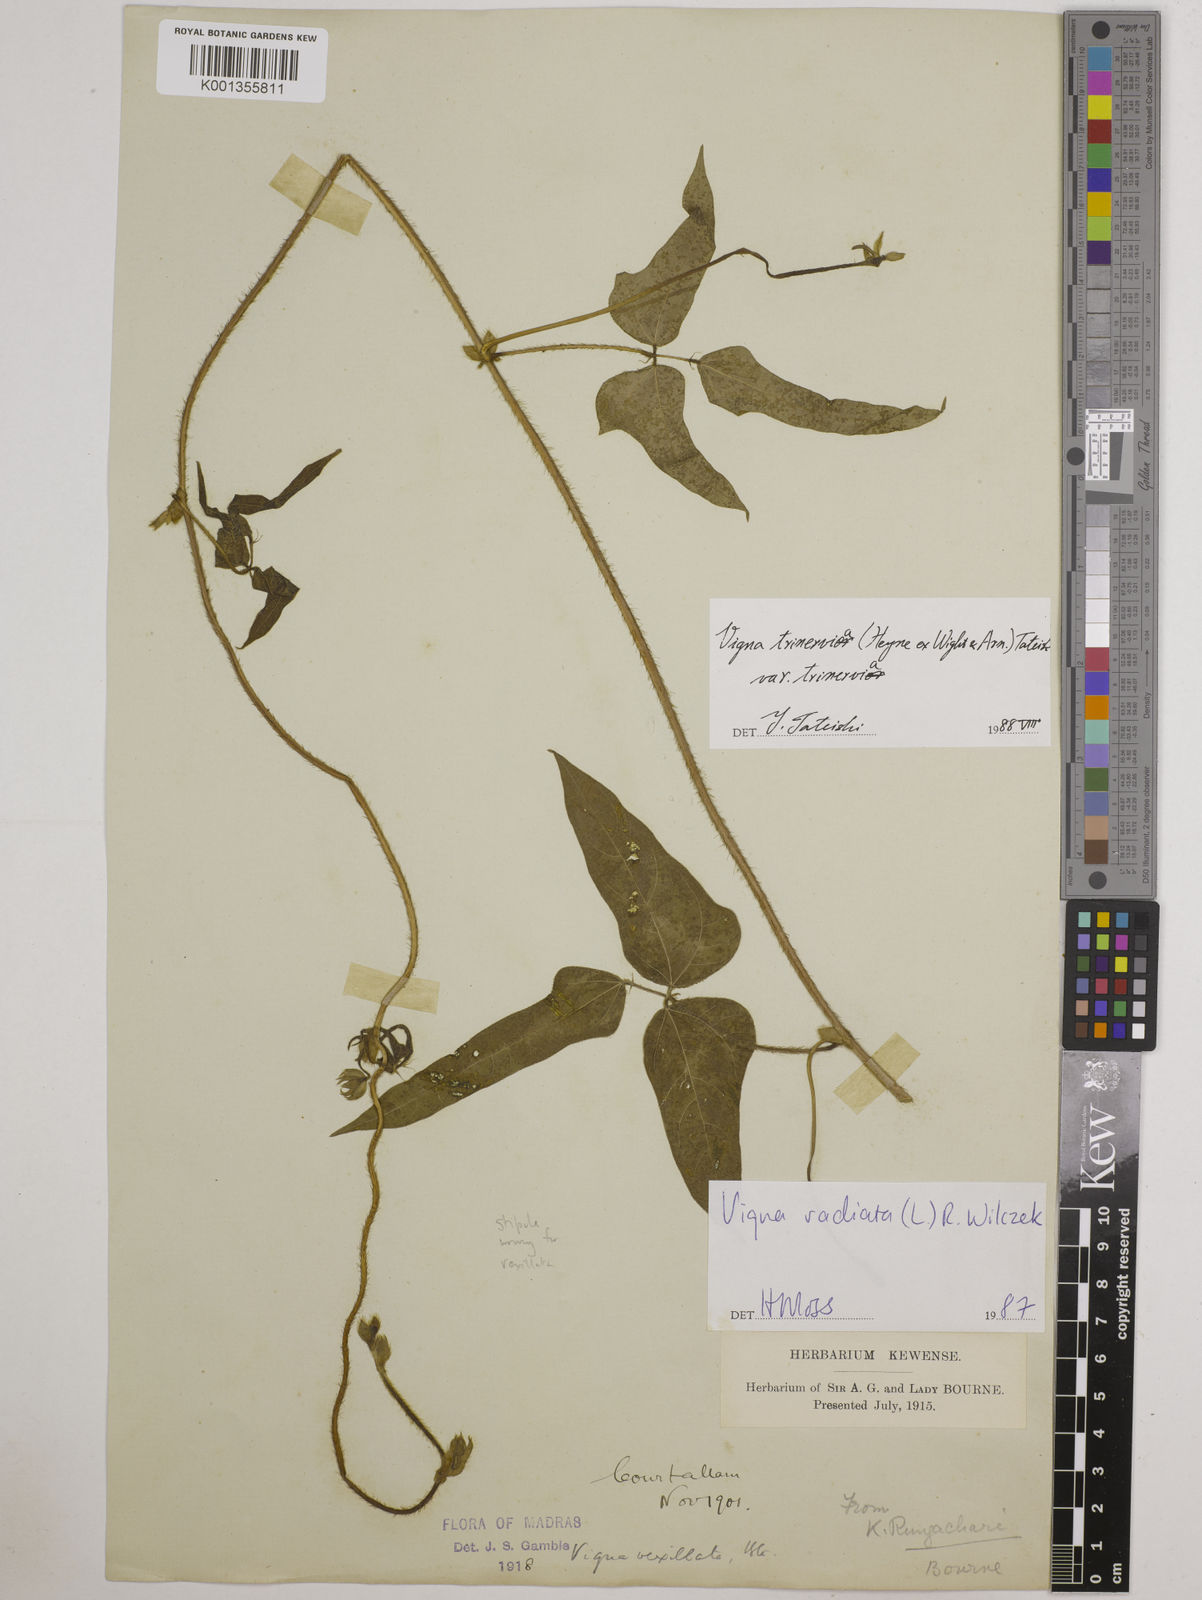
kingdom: Plantae
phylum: Tracheophyta
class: Magnoliopsida
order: Fabales
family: Fabaceae
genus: Vigna
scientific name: Vigna radiata
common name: Mung-bean
